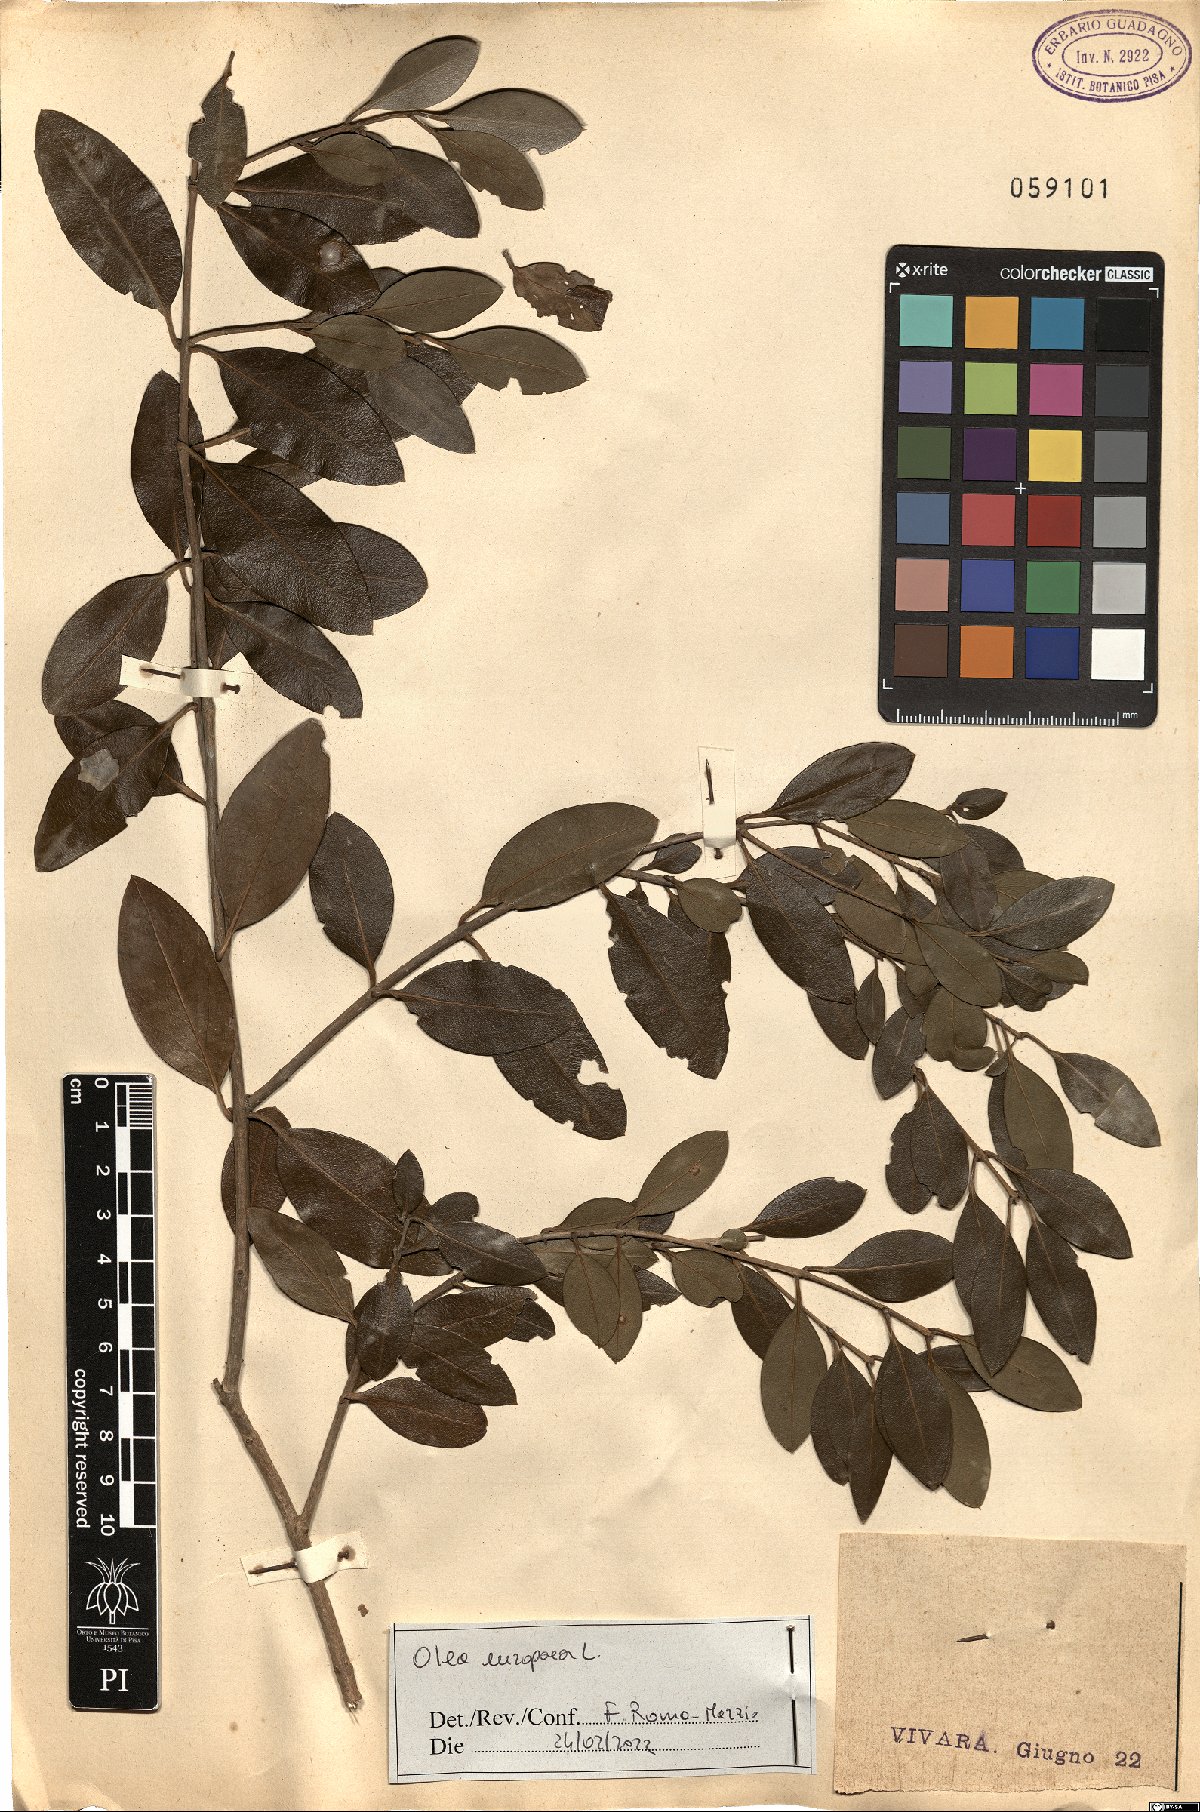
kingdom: Plantae
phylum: Tracheophyta
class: Magnoliopsida
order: Lamiales
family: Oleaceae
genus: Olea
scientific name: Olea europaea
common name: Olive
